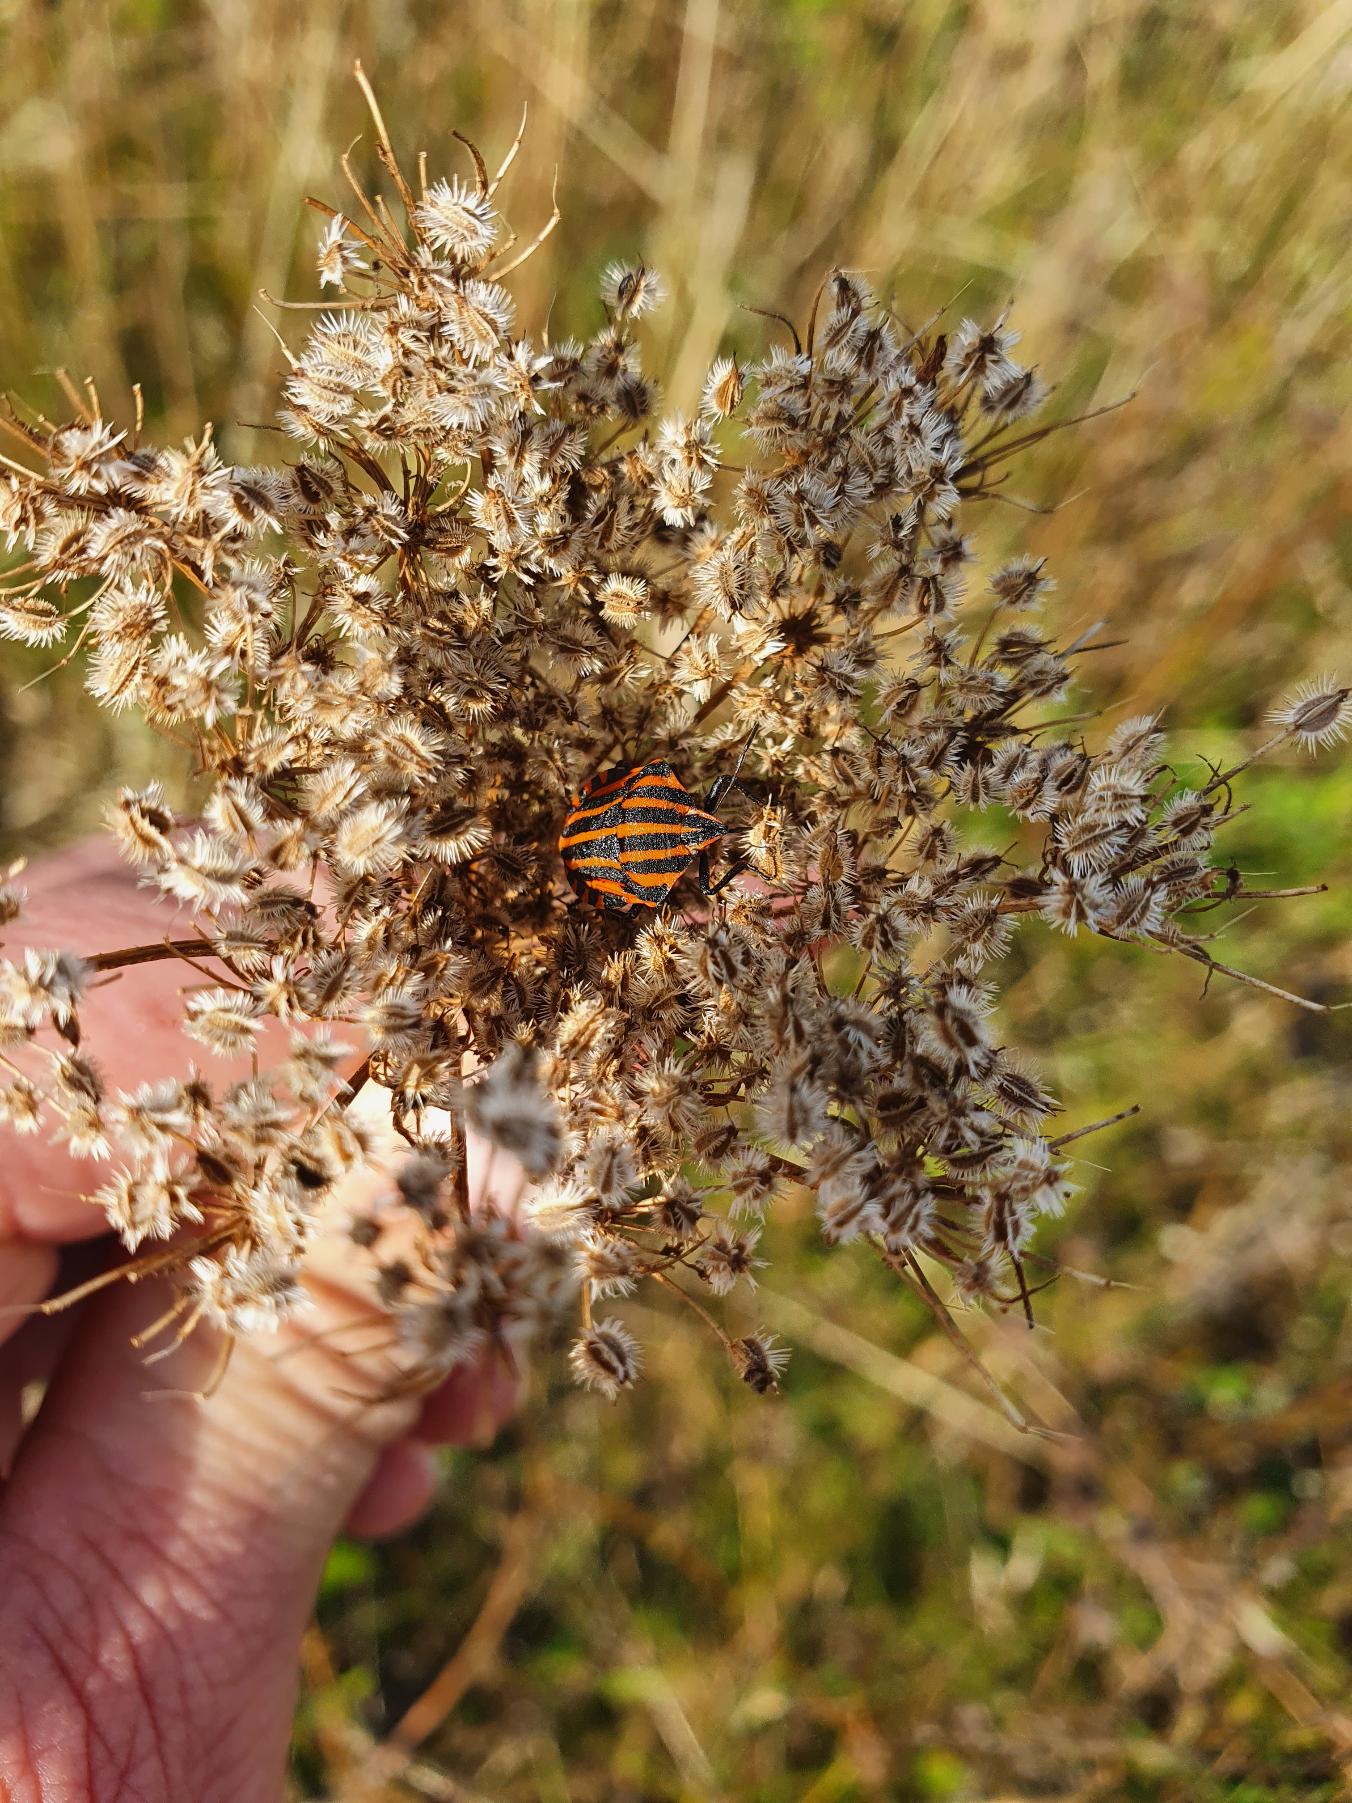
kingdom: Animalia
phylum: Arthropoda
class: Insecta
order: Hemiptera
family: Pentatomidae
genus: Graphosoma
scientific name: Graphosoma italicum
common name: Stribetæge
